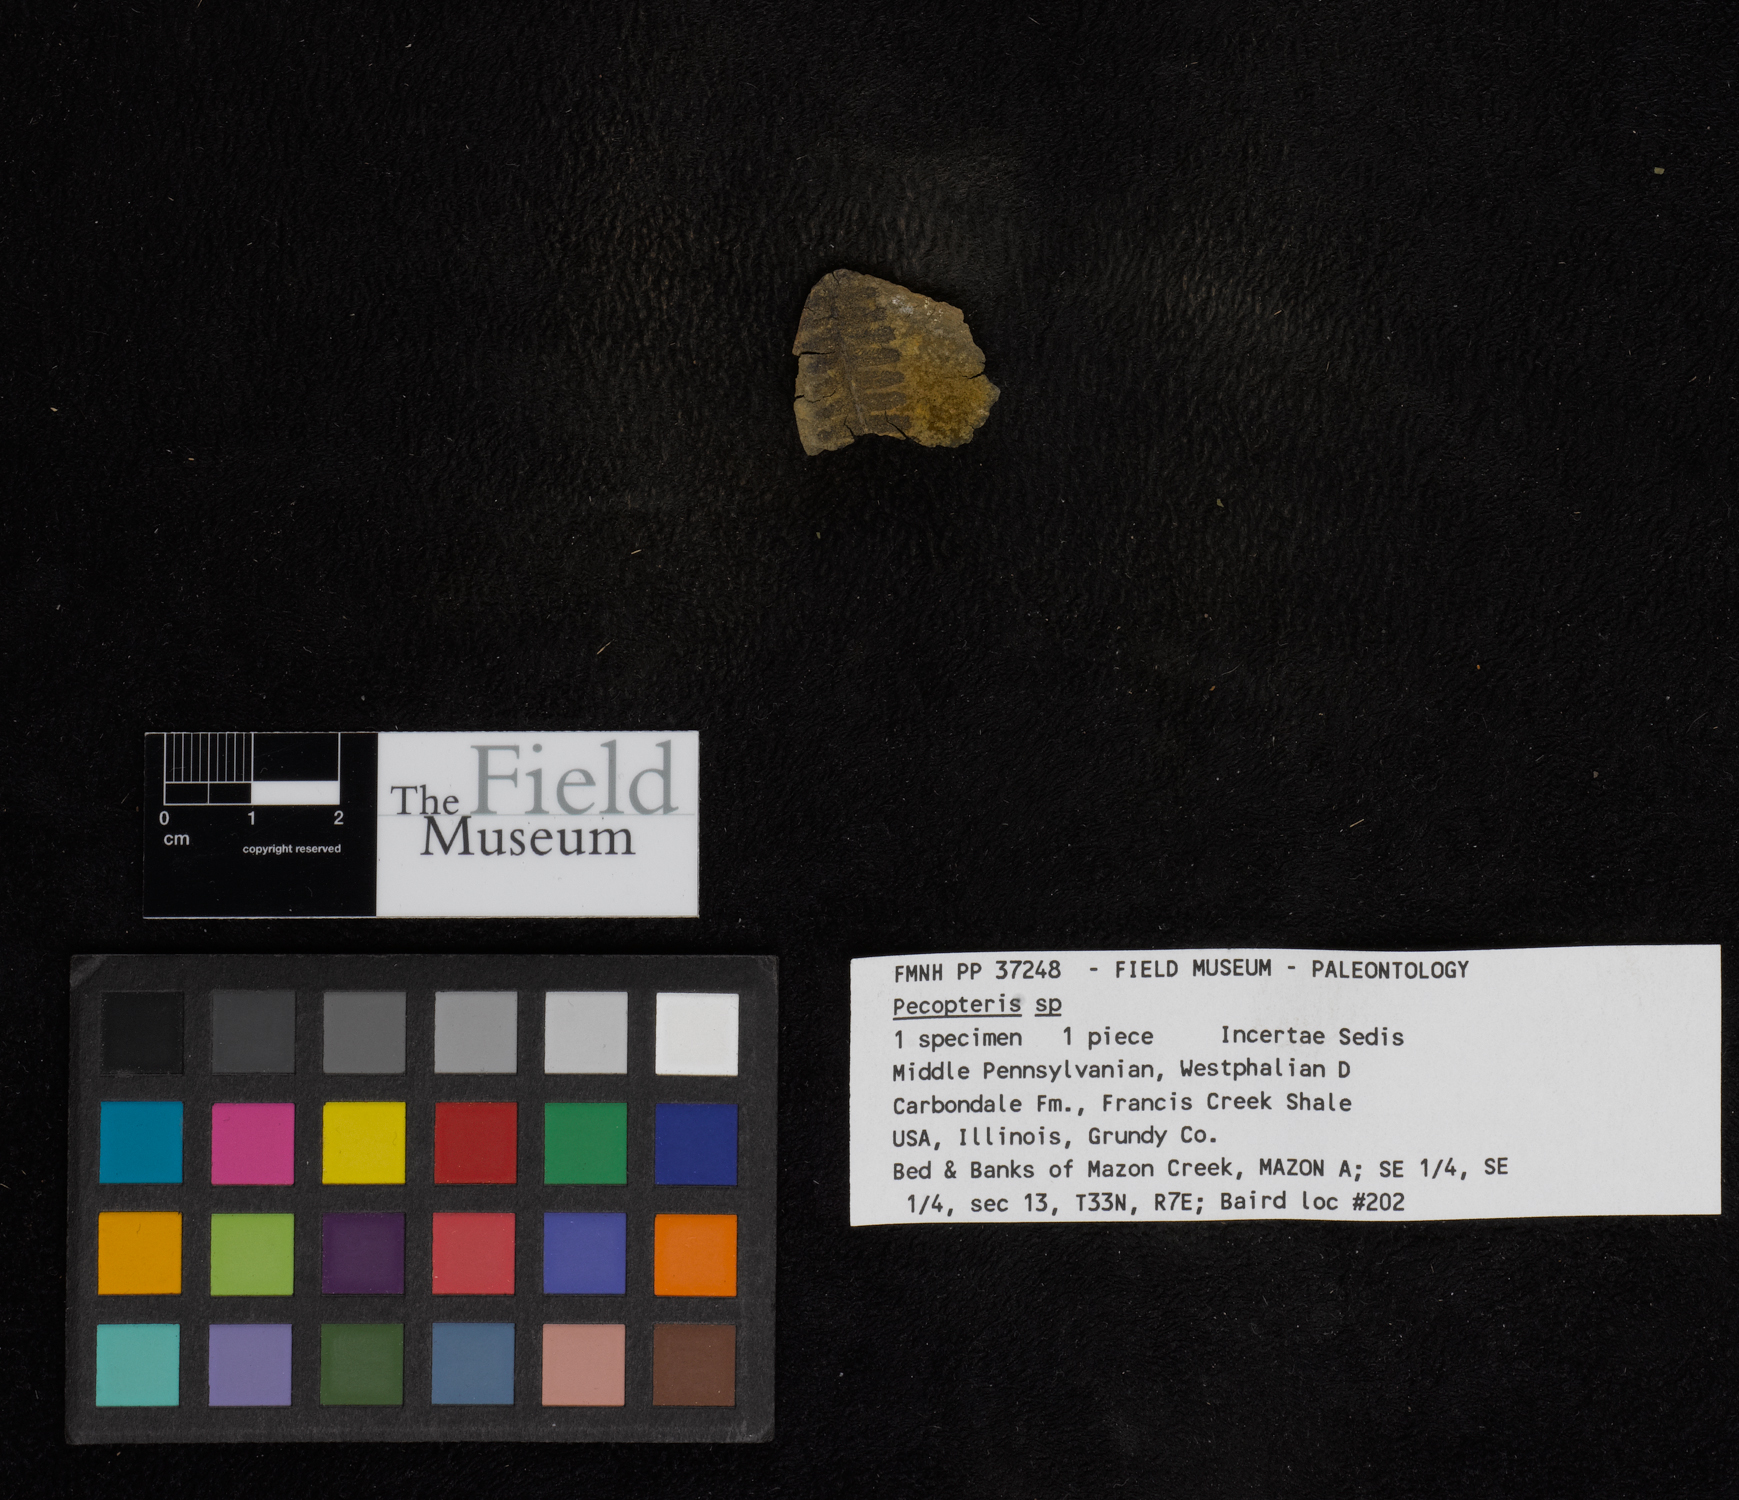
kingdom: Plantae
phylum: Tracheophyta
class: Polypodiopsida
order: Marattiales
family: Asterothecaceae
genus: Pecopteris
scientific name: Pecopteris
